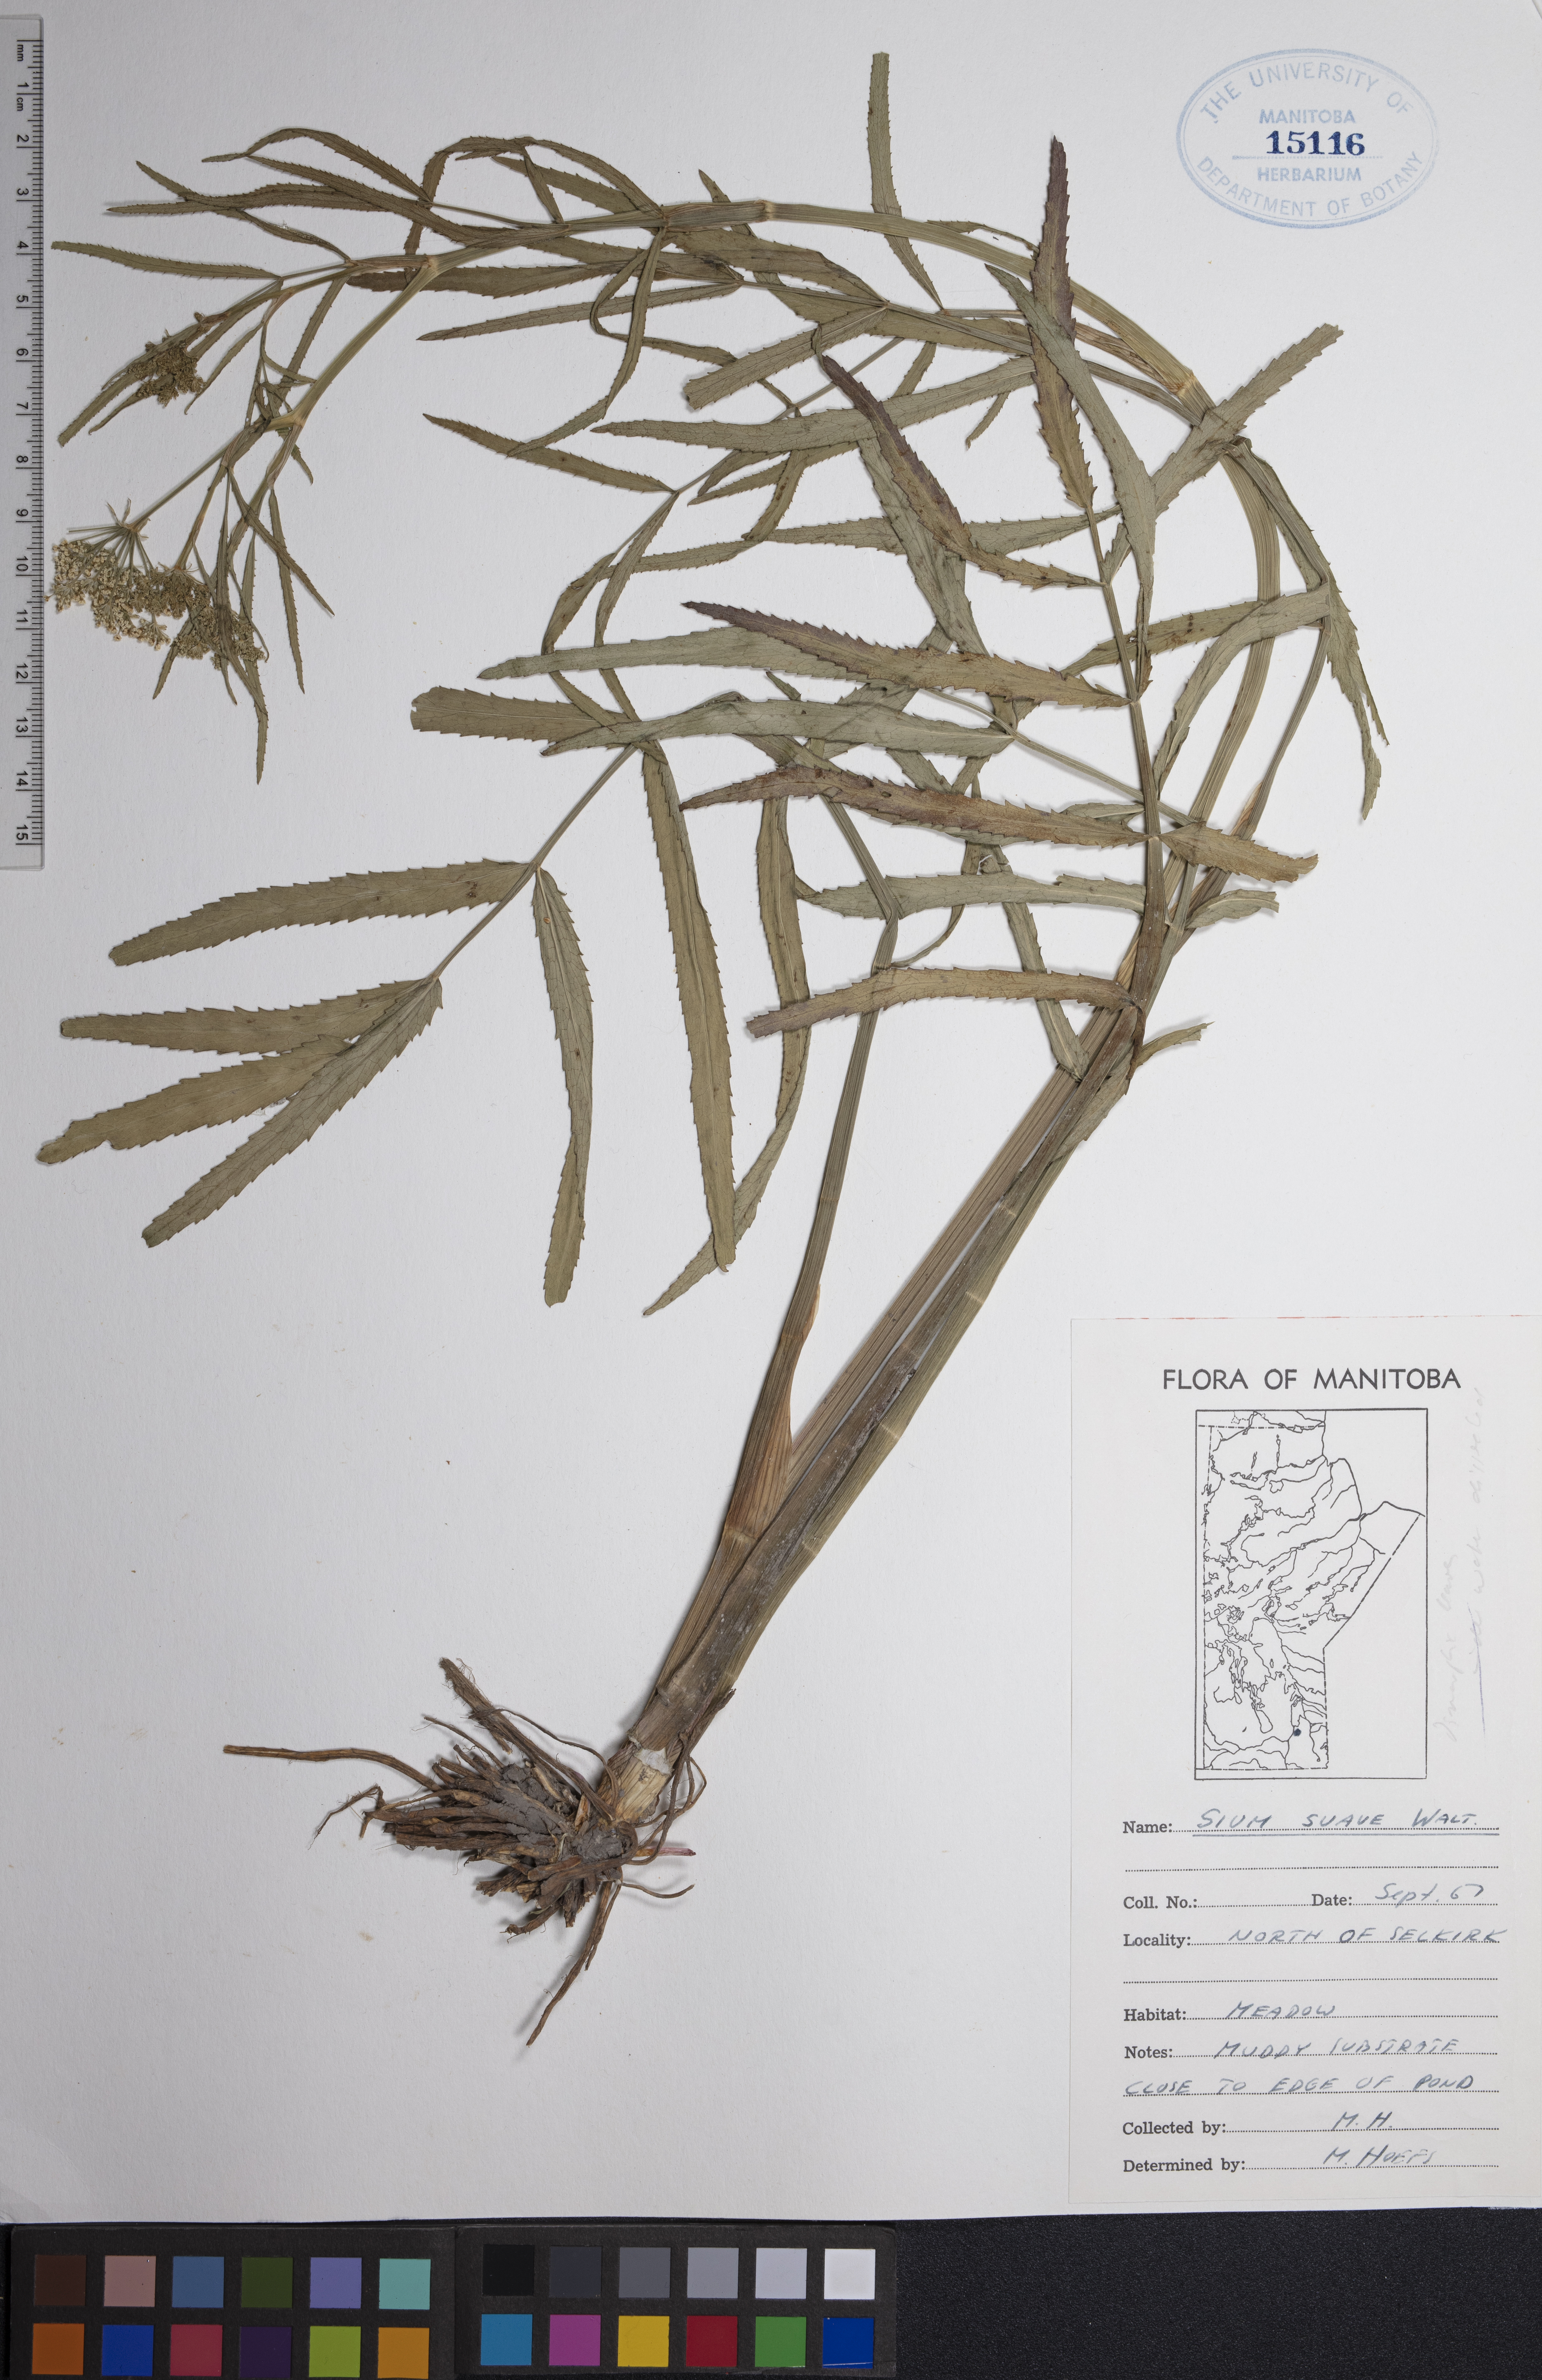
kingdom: Plantae
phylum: Tracheophyta
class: Magnoliopsida
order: Apiales
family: Apiaceae
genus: Sium
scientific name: Sium suave
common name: Hemlock water-parsnip
